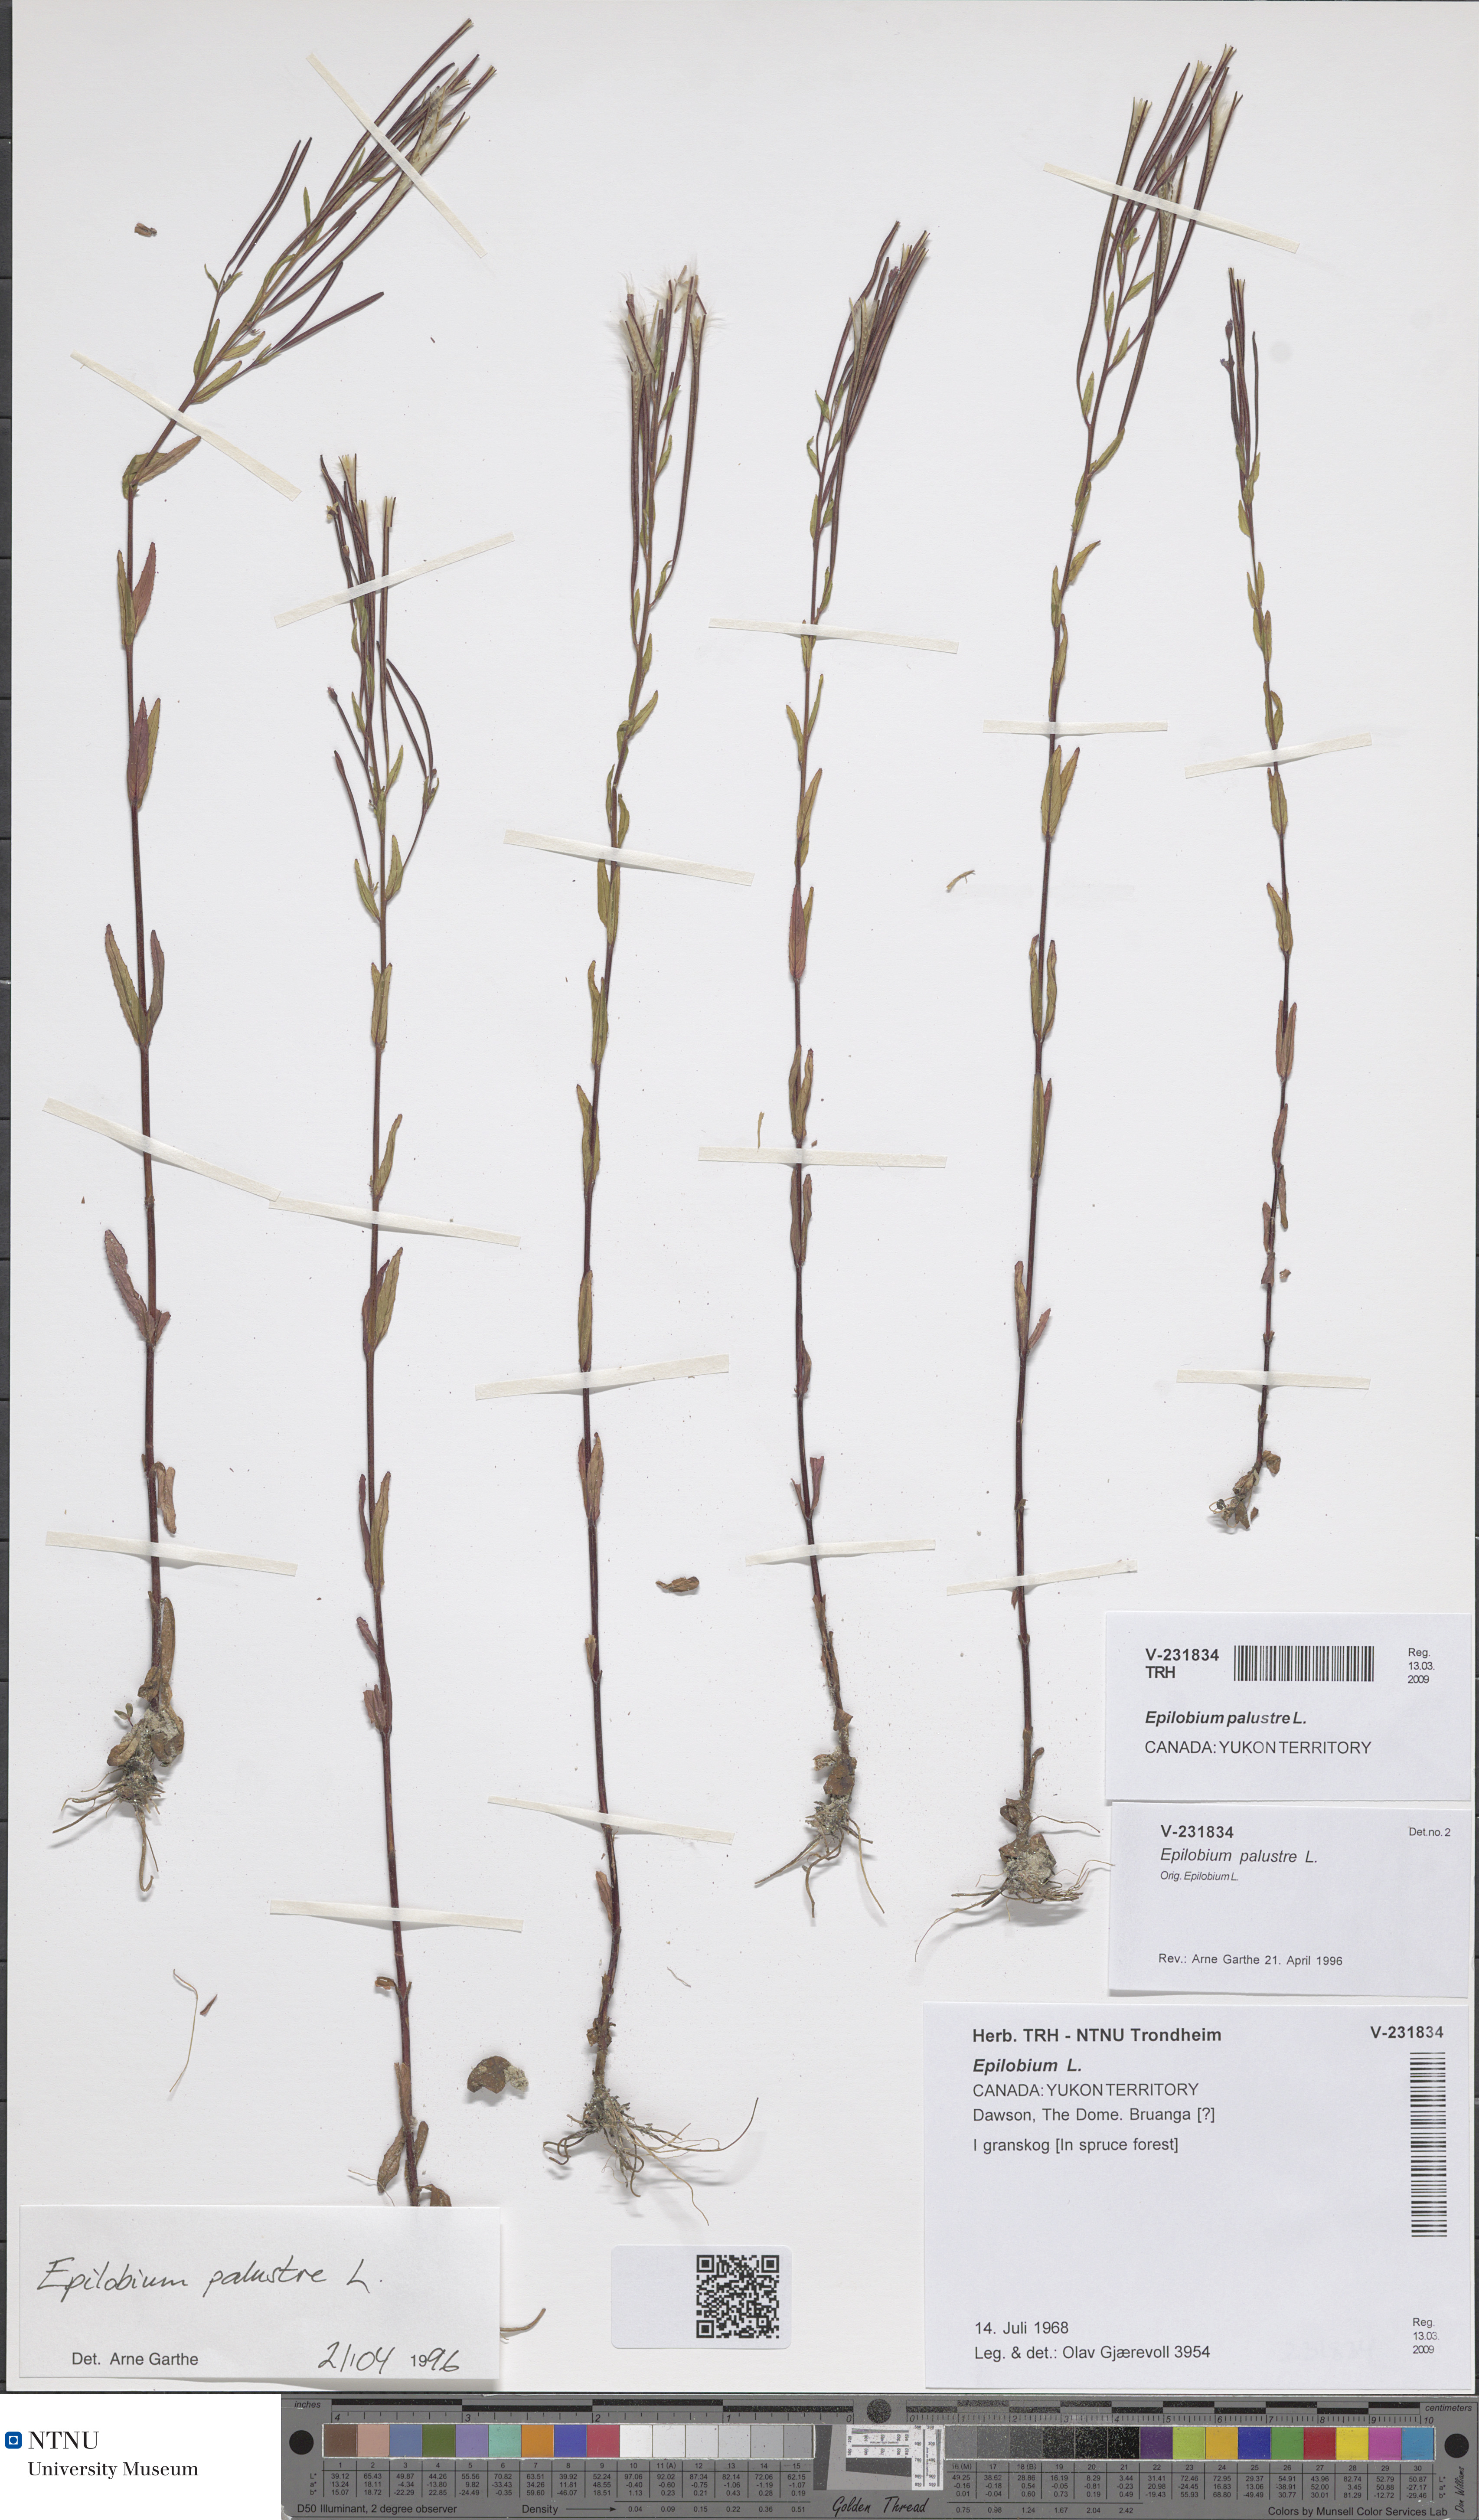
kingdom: Plantae
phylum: Tracheophyta
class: Magnoliopsida
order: Myrtales
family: Onagraceae
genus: Epilobium
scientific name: Epilobium palustre
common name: Marsh willowherb
